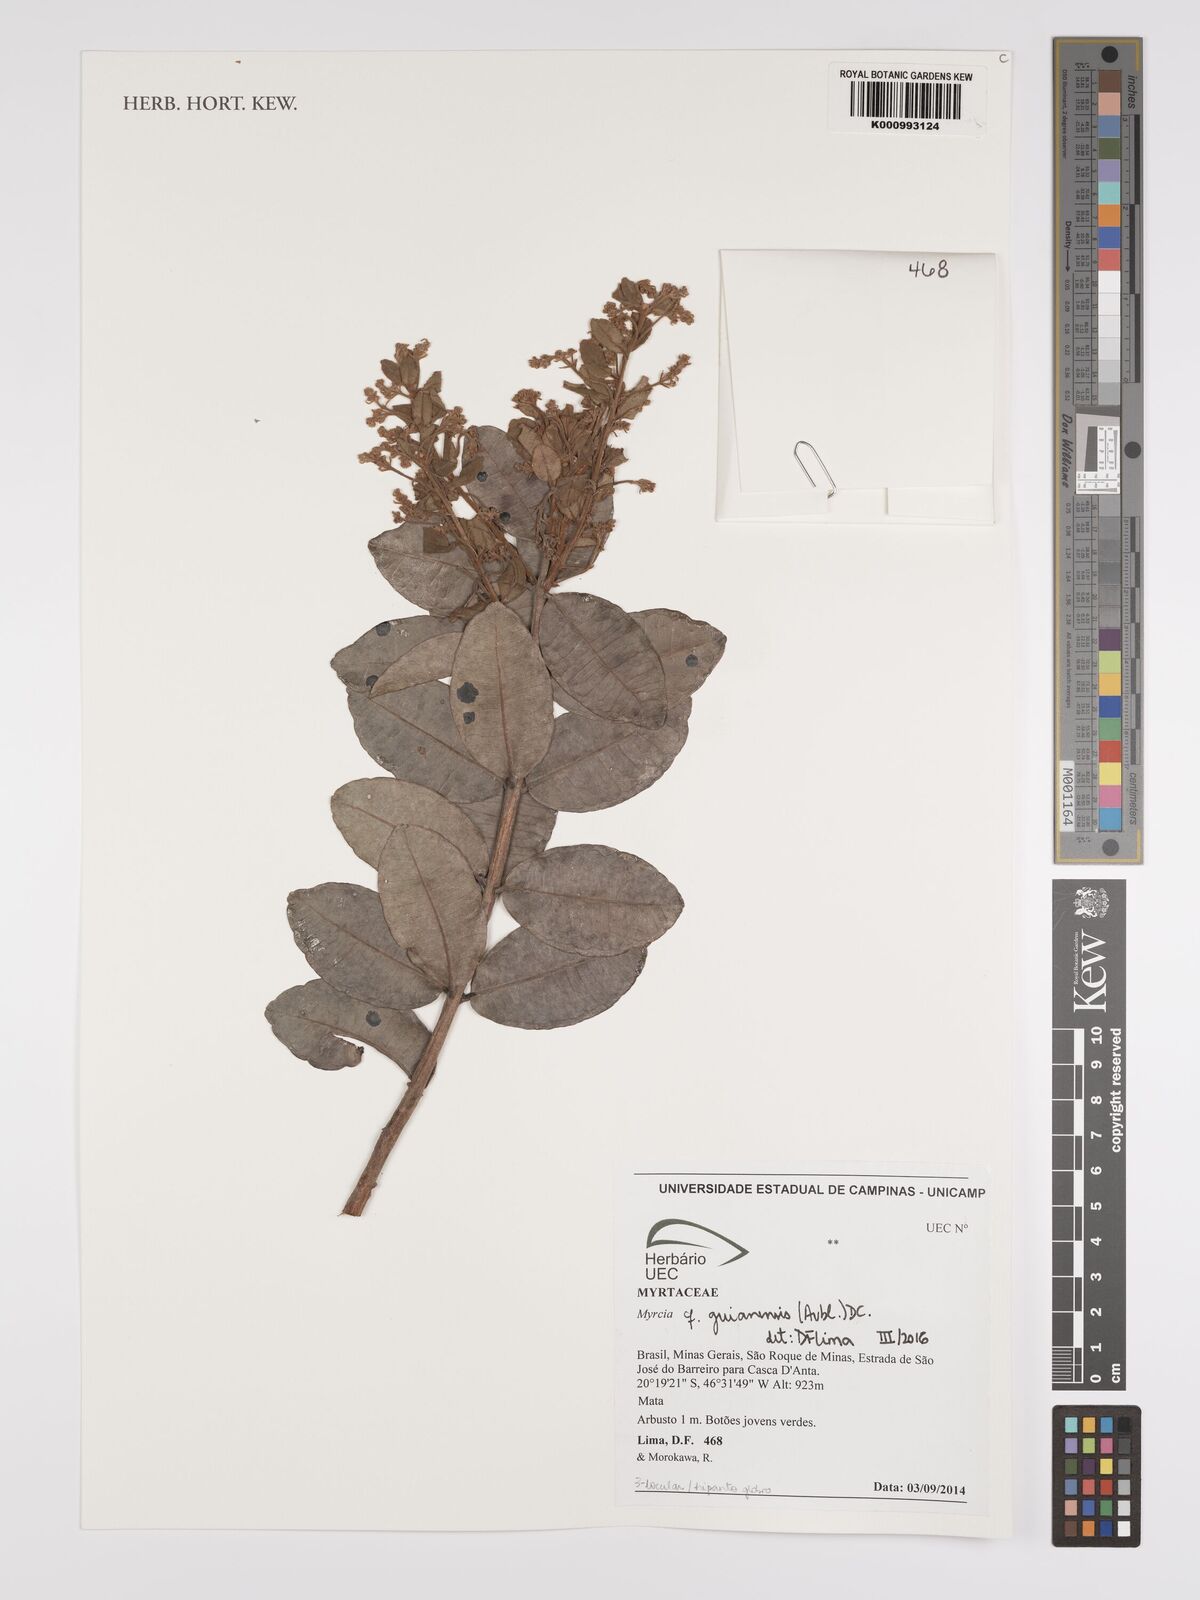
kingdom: Plantae
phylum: Tracheophyta
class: Magnoliopsida
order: Myrtales
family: Myrtaceae
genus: Myrcia
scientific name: Myrcia guianensis
